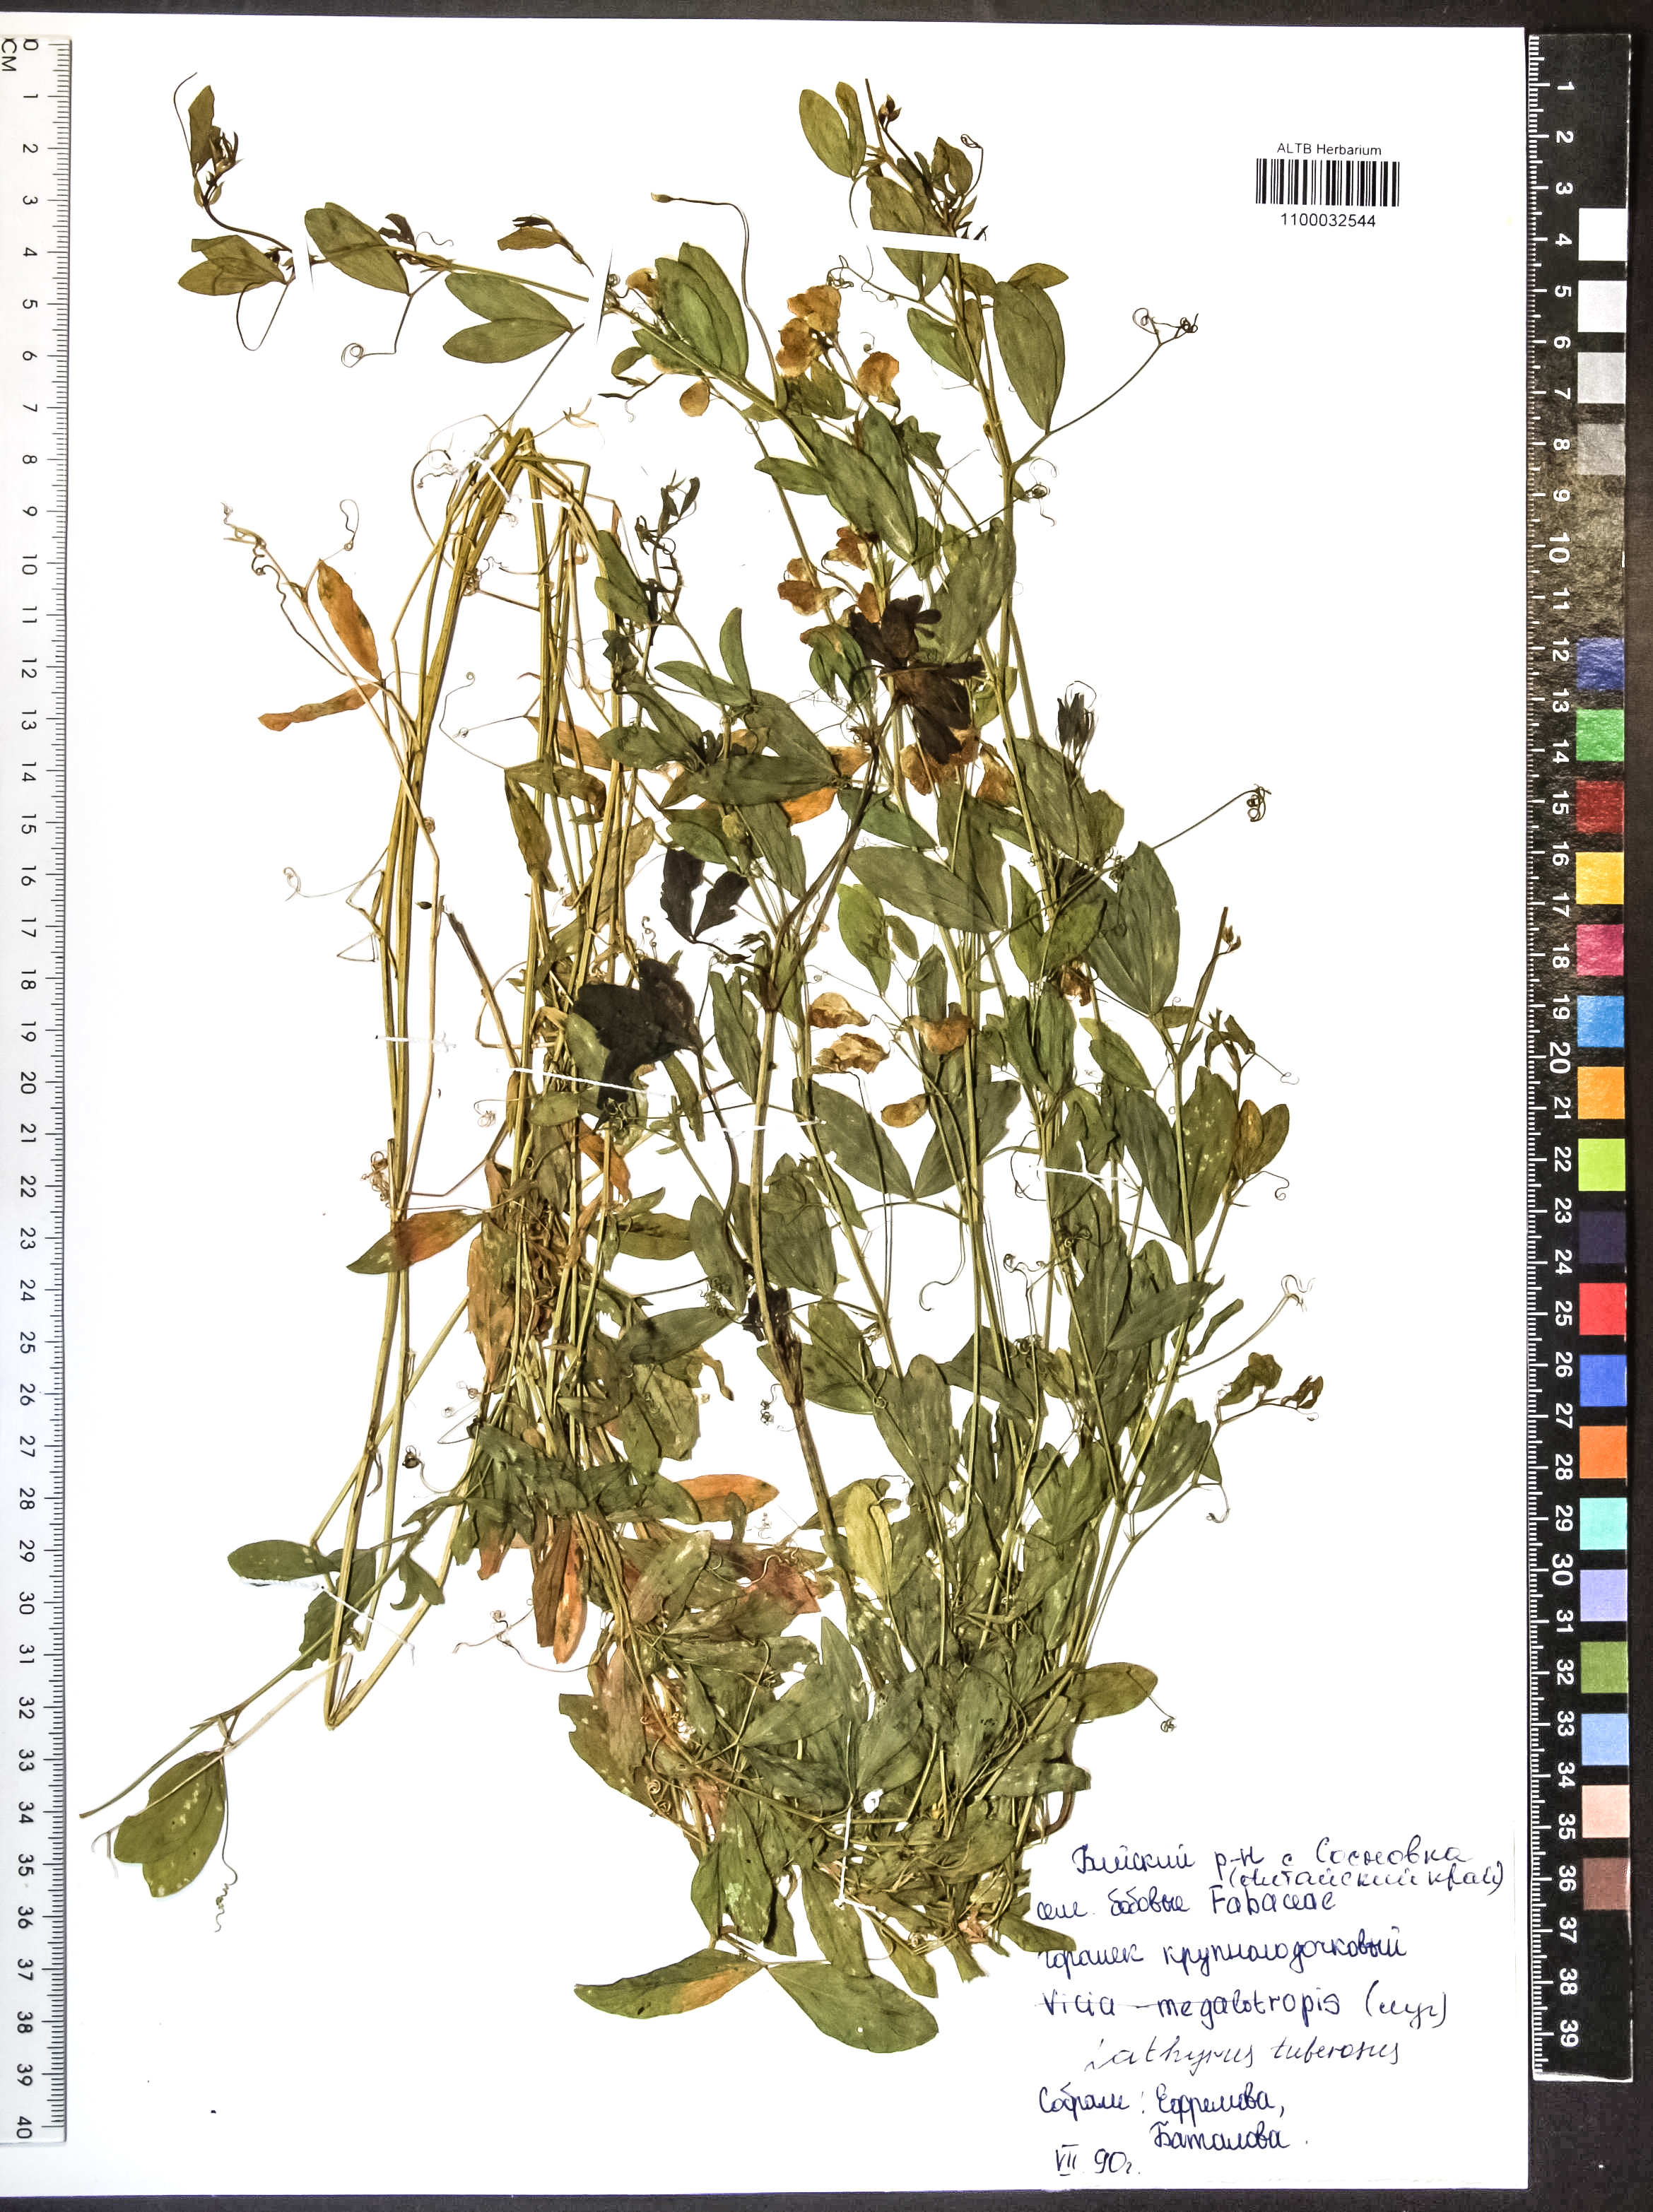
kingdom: Plantae
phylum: Tracheophyta
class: Magnoliopsida
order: Fabales
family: Fabaceae
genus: Lathyrus
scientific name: Lathyrus tuberosus
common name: Tuberous pea
